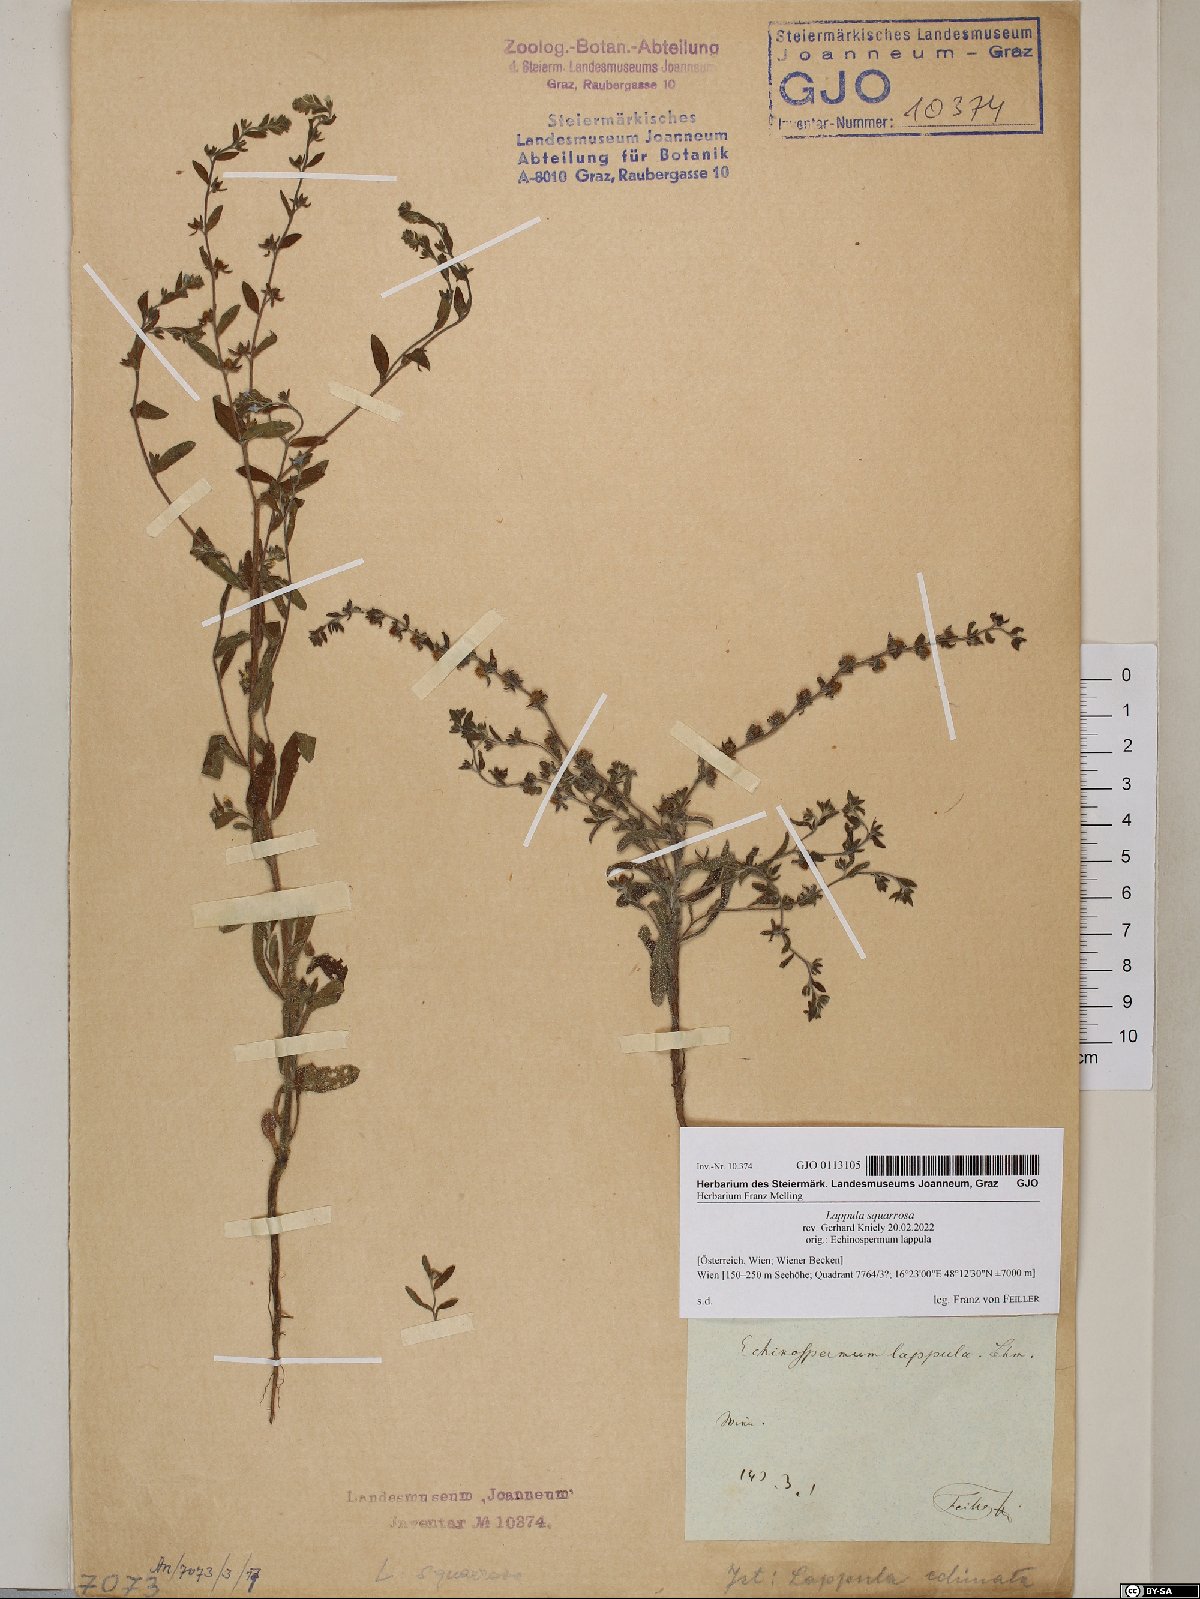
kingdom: Plantae
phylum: Tracheophyta
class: Magnoliopsida
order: Boraginales
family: Boraginaceae
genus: Lappula
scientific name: Lappula squarrosa
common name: European stickseed
